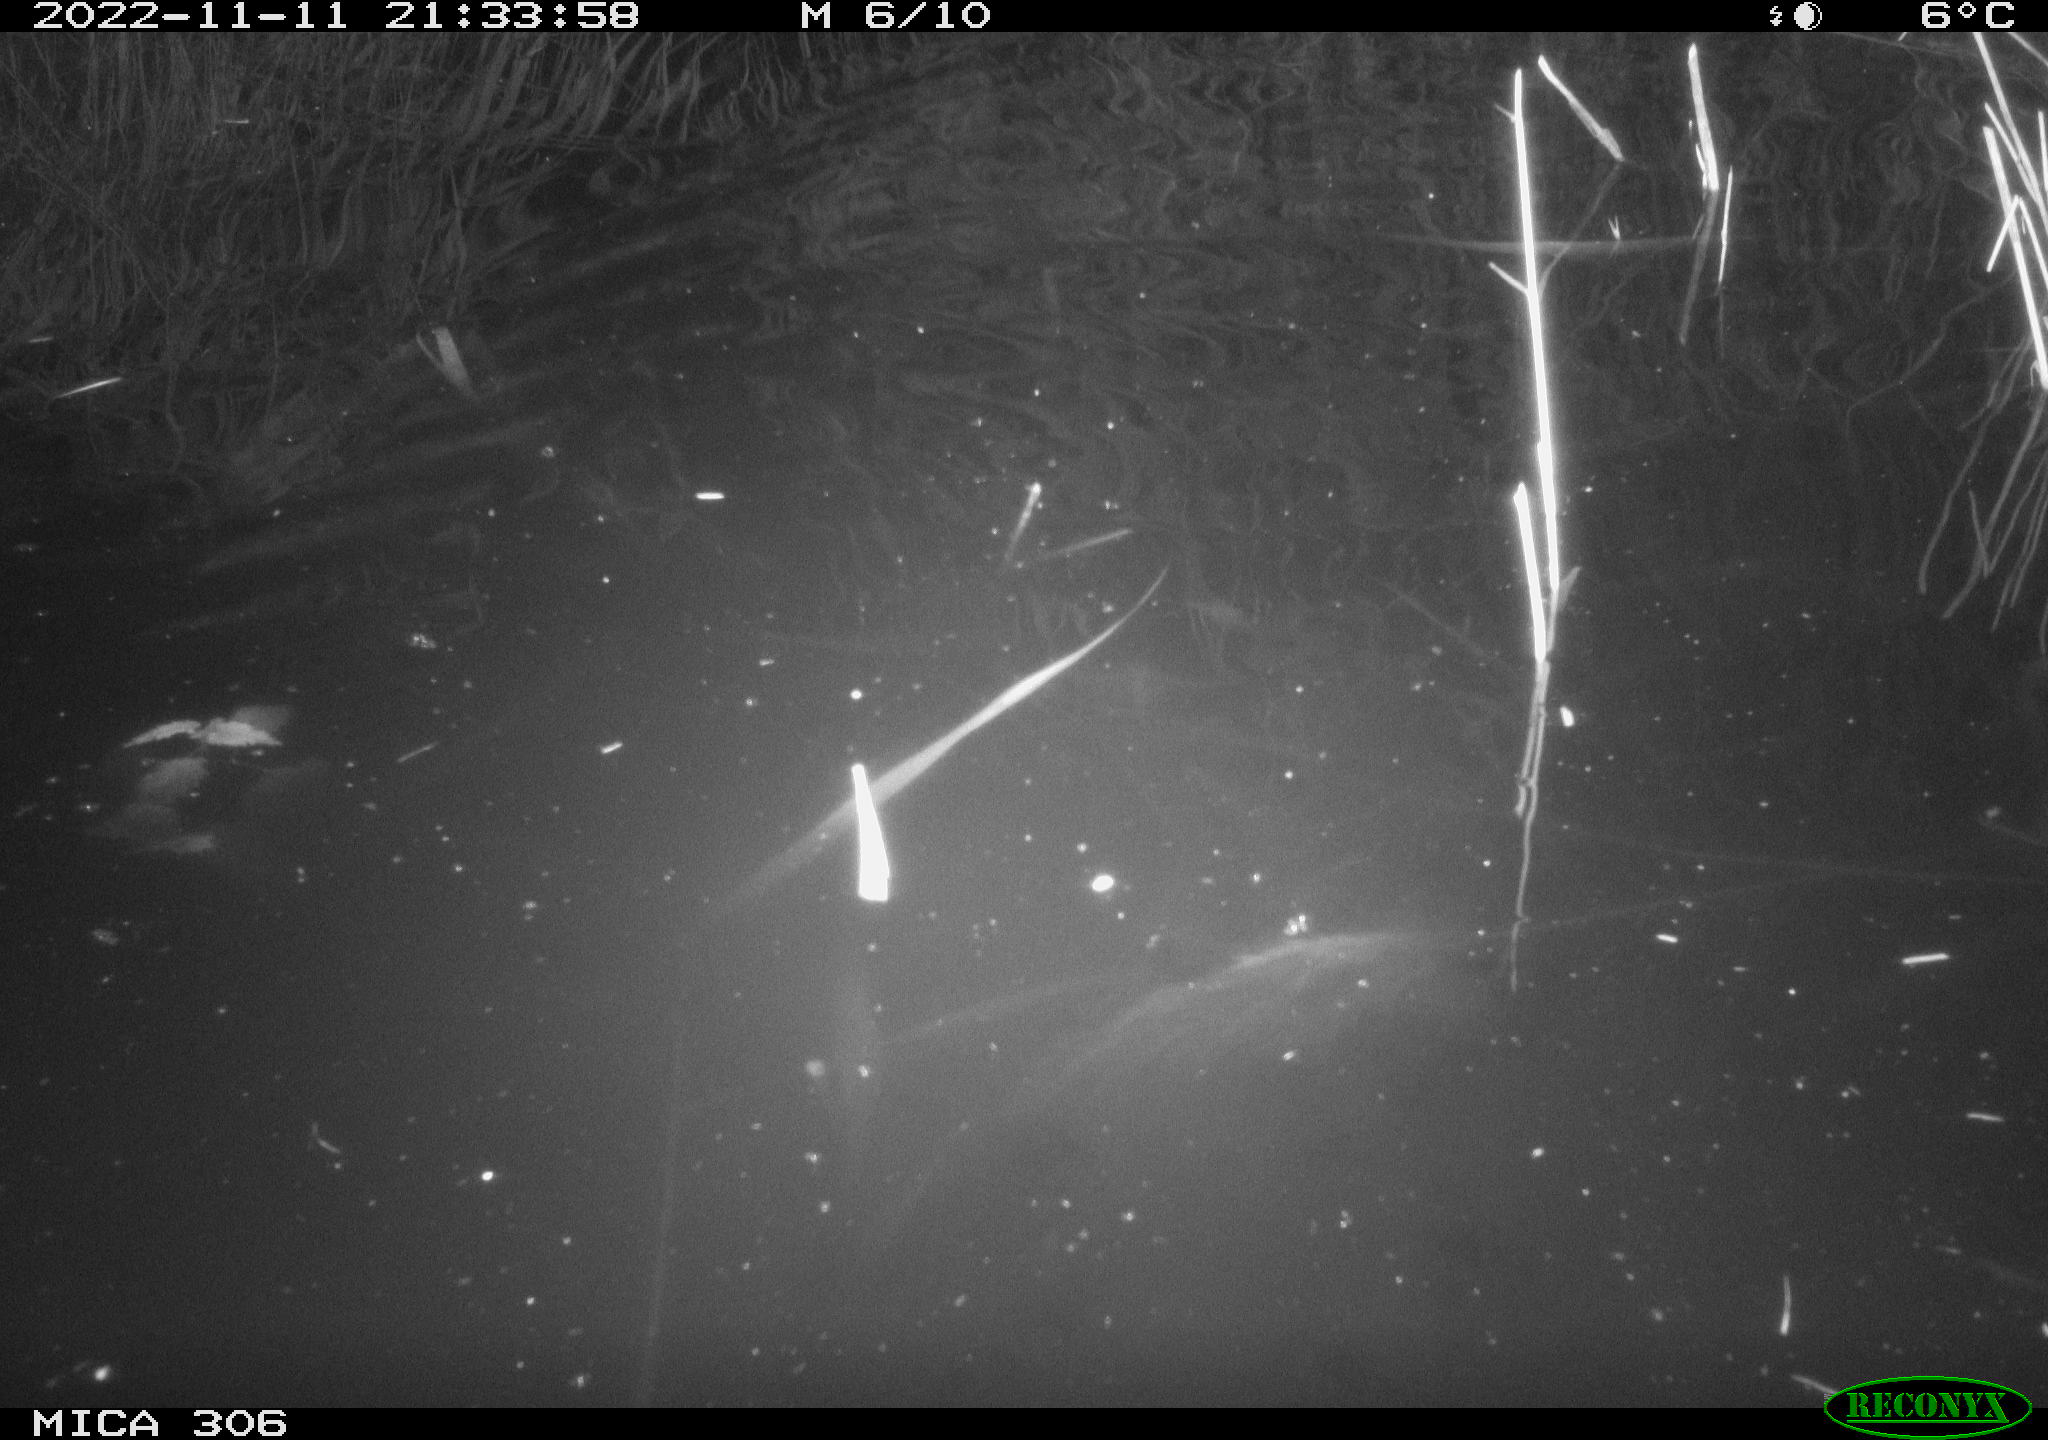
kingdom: Animalia
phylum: Chordata
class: Mammalia
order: Rodentia
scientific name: Rodentia
